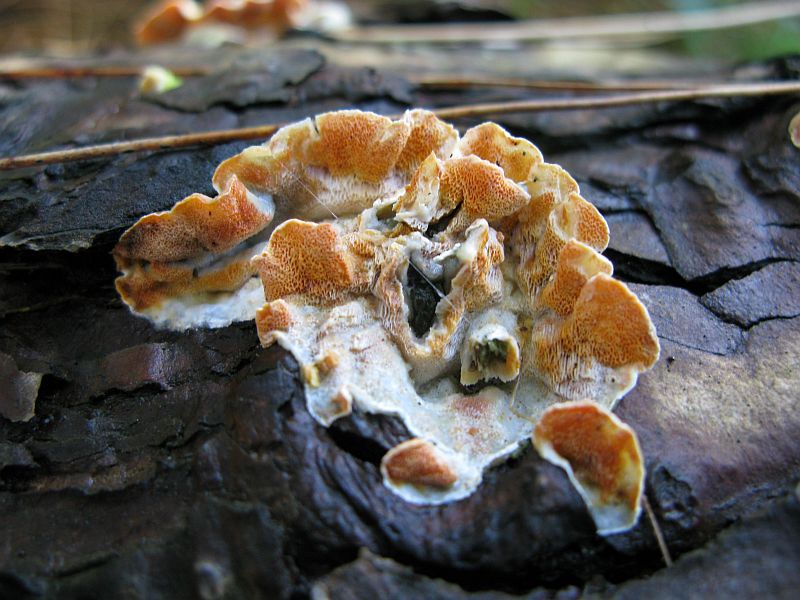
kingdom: Fungi
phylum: Basidiomycota
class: Agaricomycetes
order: Polyporales
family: Incrustoporiaceae
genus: Skeletocutis
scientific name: Skeletocutis amorpha
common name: orange krystalporesvamp
